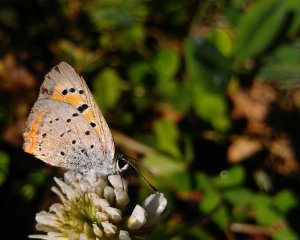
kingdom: Animalia
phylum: Arthropoda
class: Insecta
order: Lepidoptera
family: Lycaenidae
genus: Lycaena
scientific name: Lycaena phlaeas
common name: American Copper
